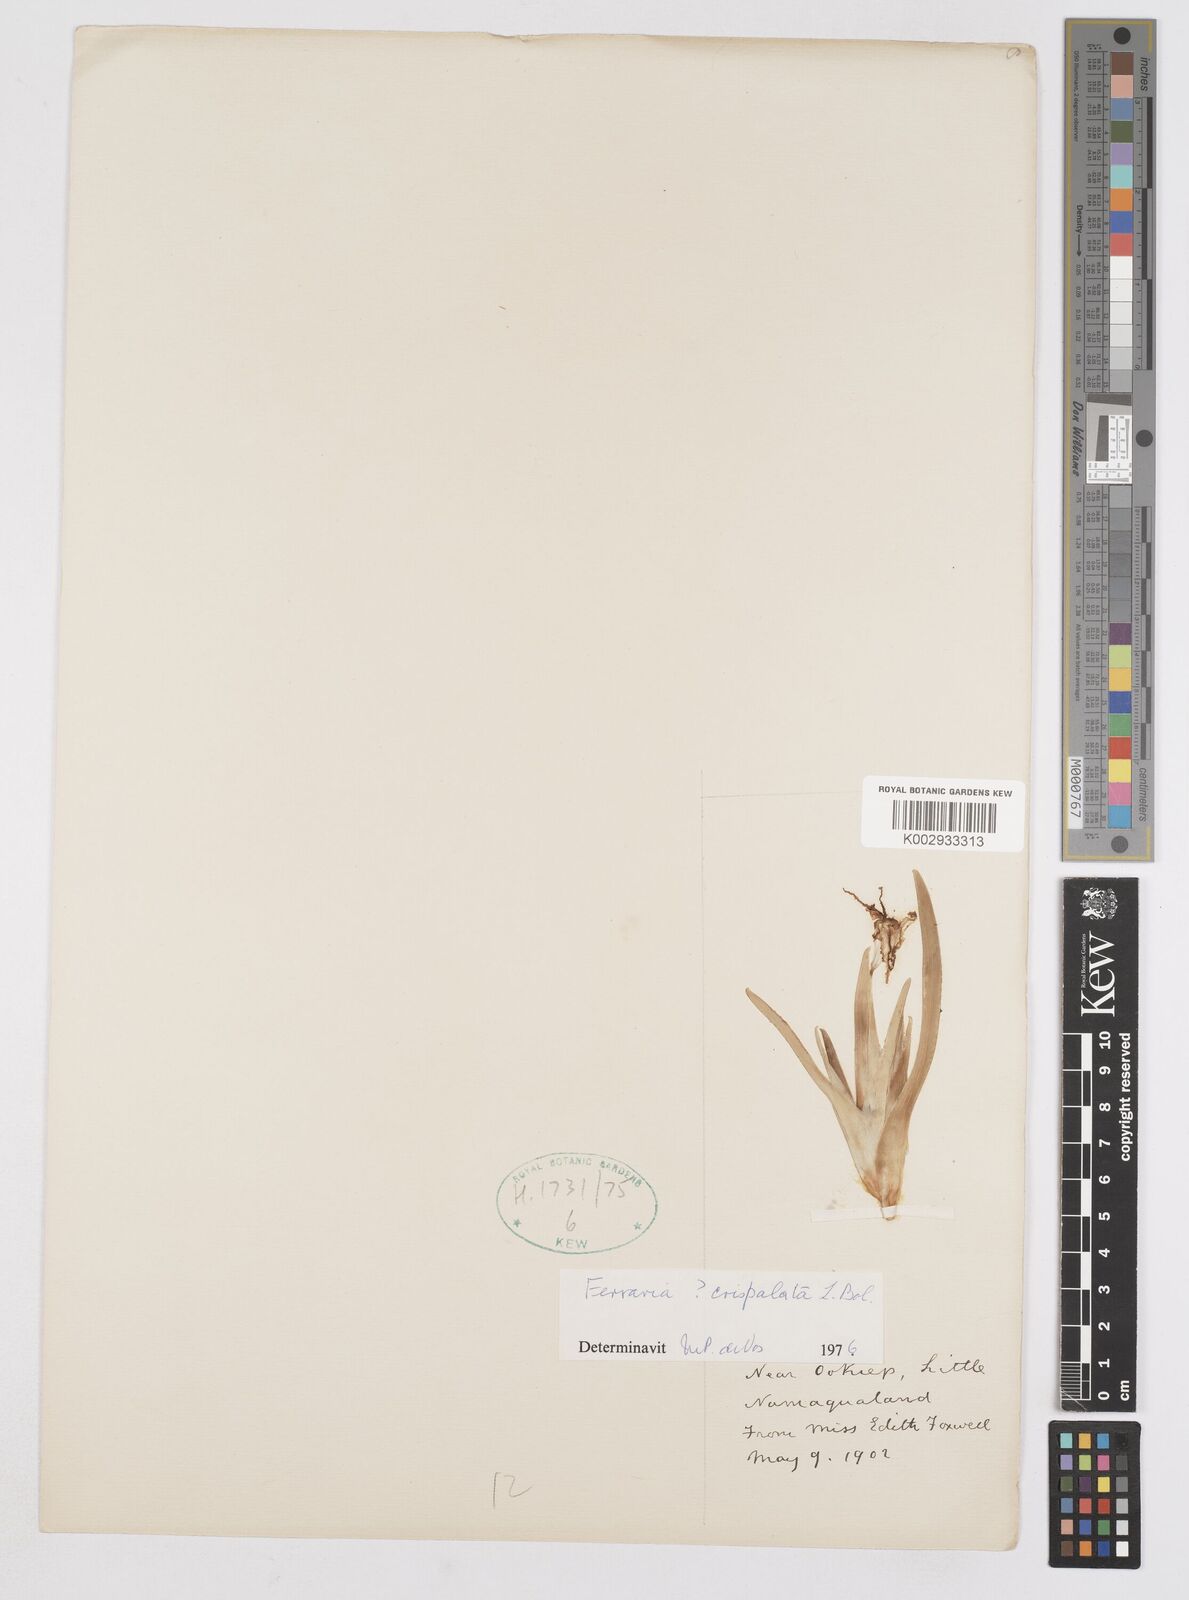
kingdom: Plantae
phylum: Tracheophyta
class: Liliopsida
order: Asparagales
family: Iridaceae
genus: Ferraria
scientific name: Ferraria macrochlamys
